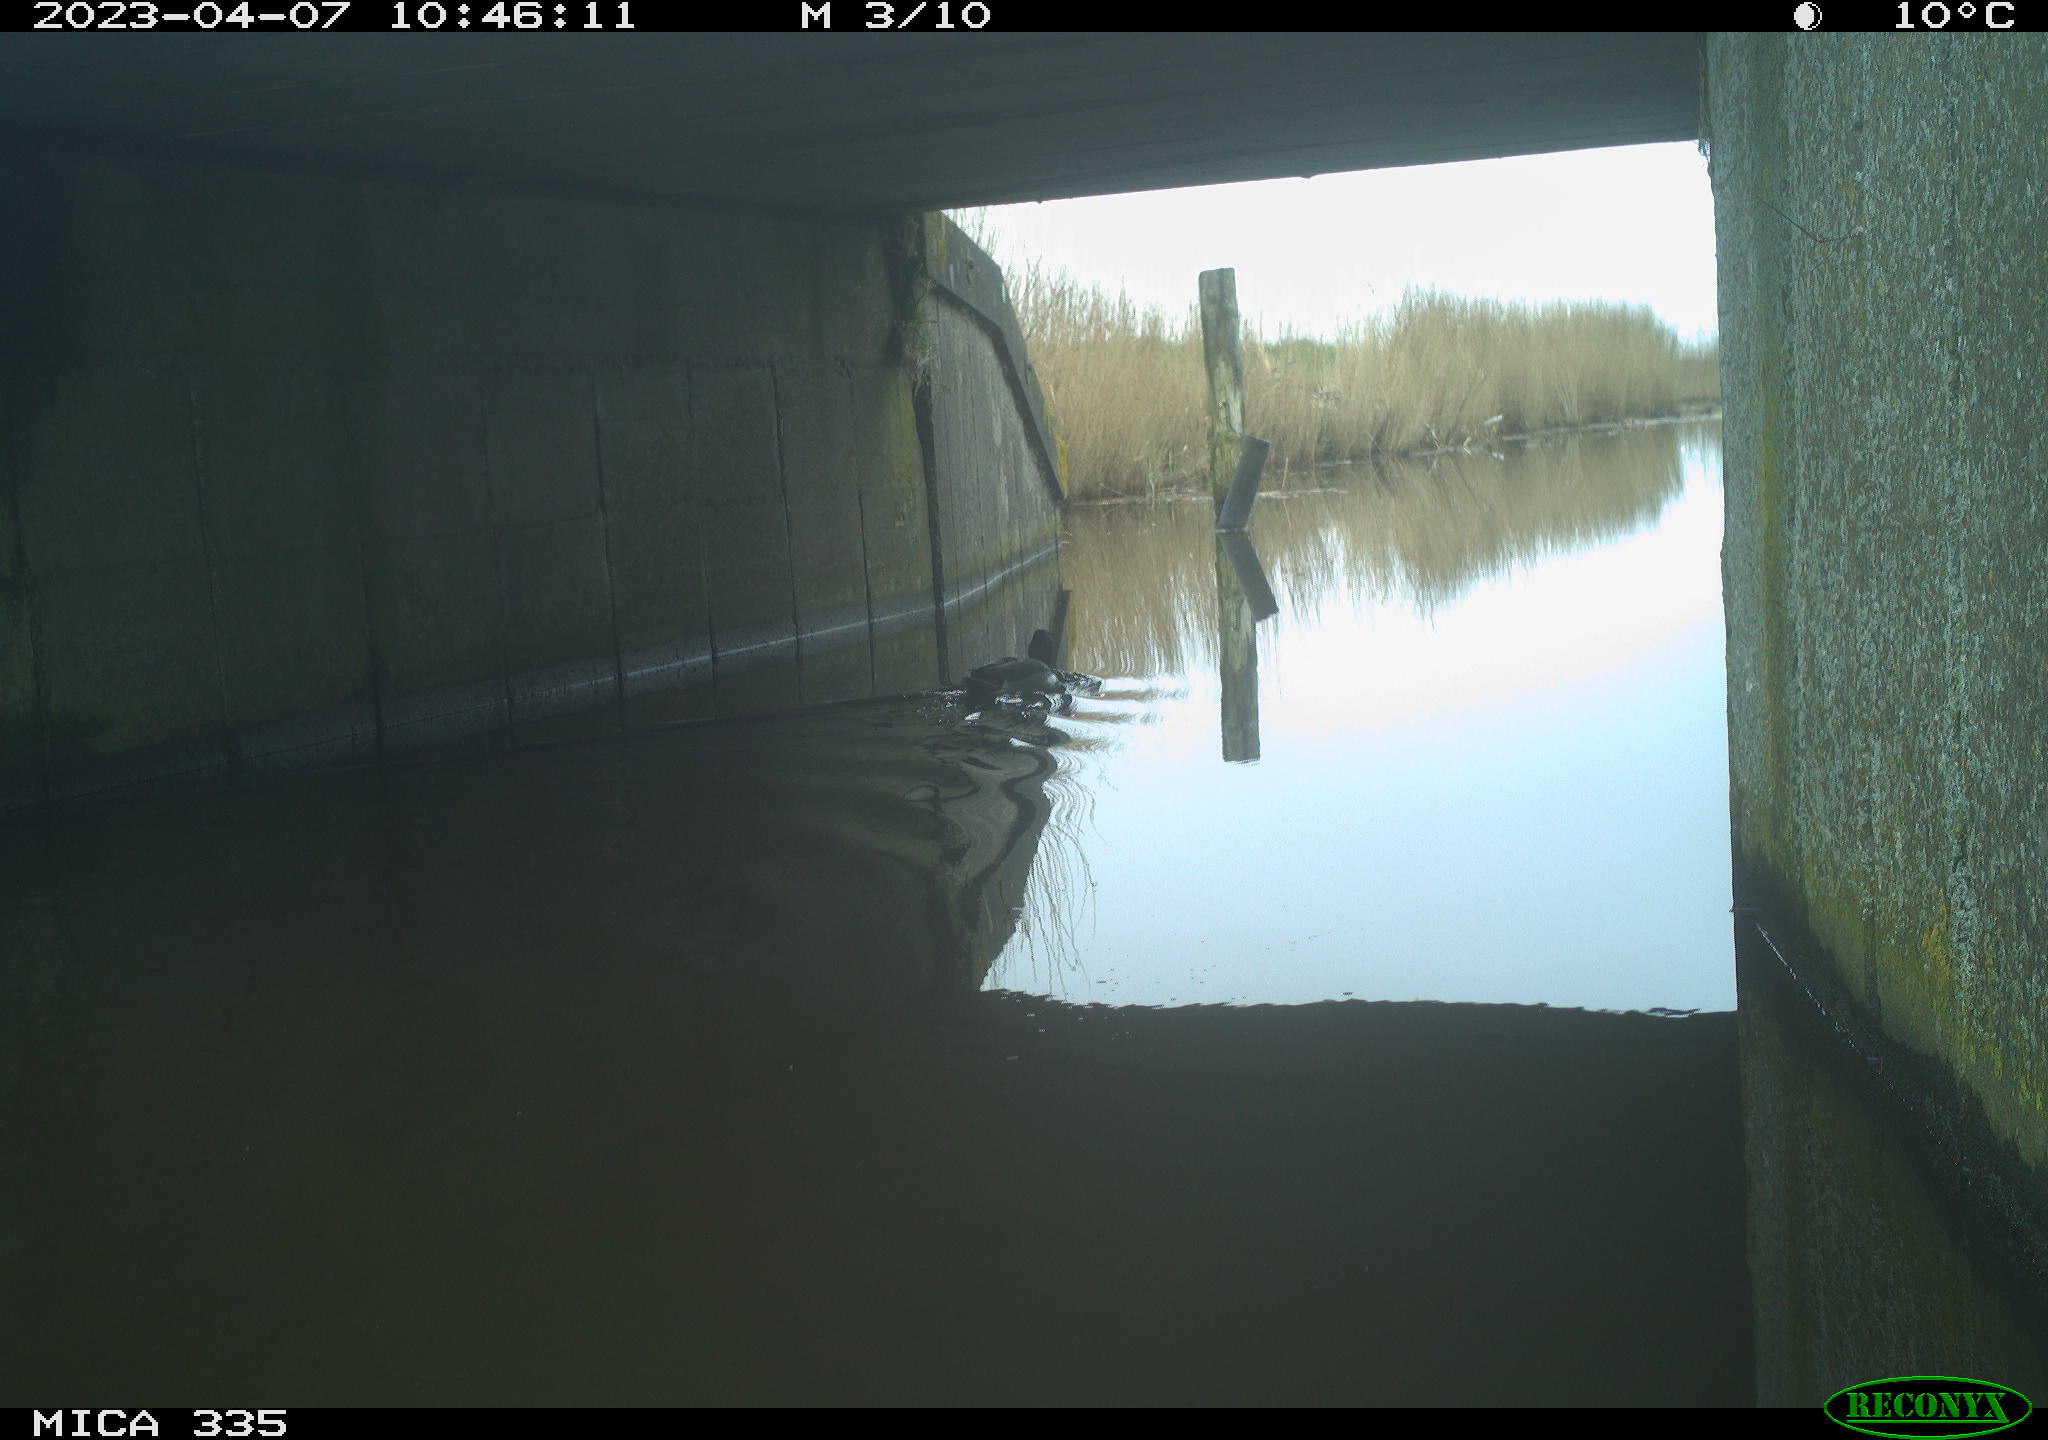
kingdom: Animalia
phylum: Chordata
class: Aves
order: Anseriformes
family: Anatidae
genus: Anas
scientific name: Anas
